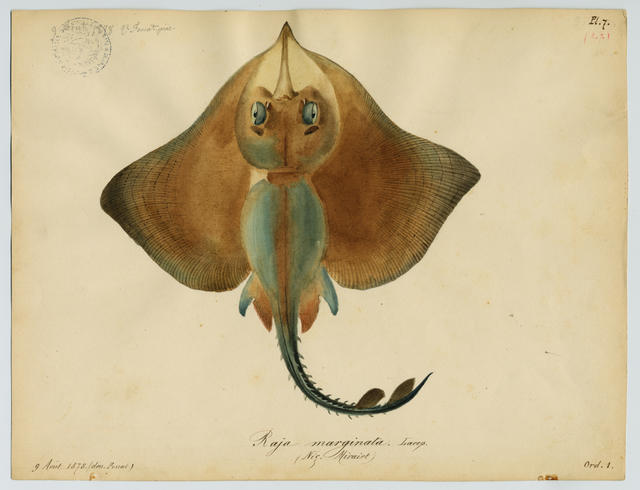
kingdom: Animalia
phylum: Chordata
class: Elasmobranchii
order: Rajiformes
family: Rajidae
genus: Rostroraja
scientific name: Rostroraja alba
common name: White skate
